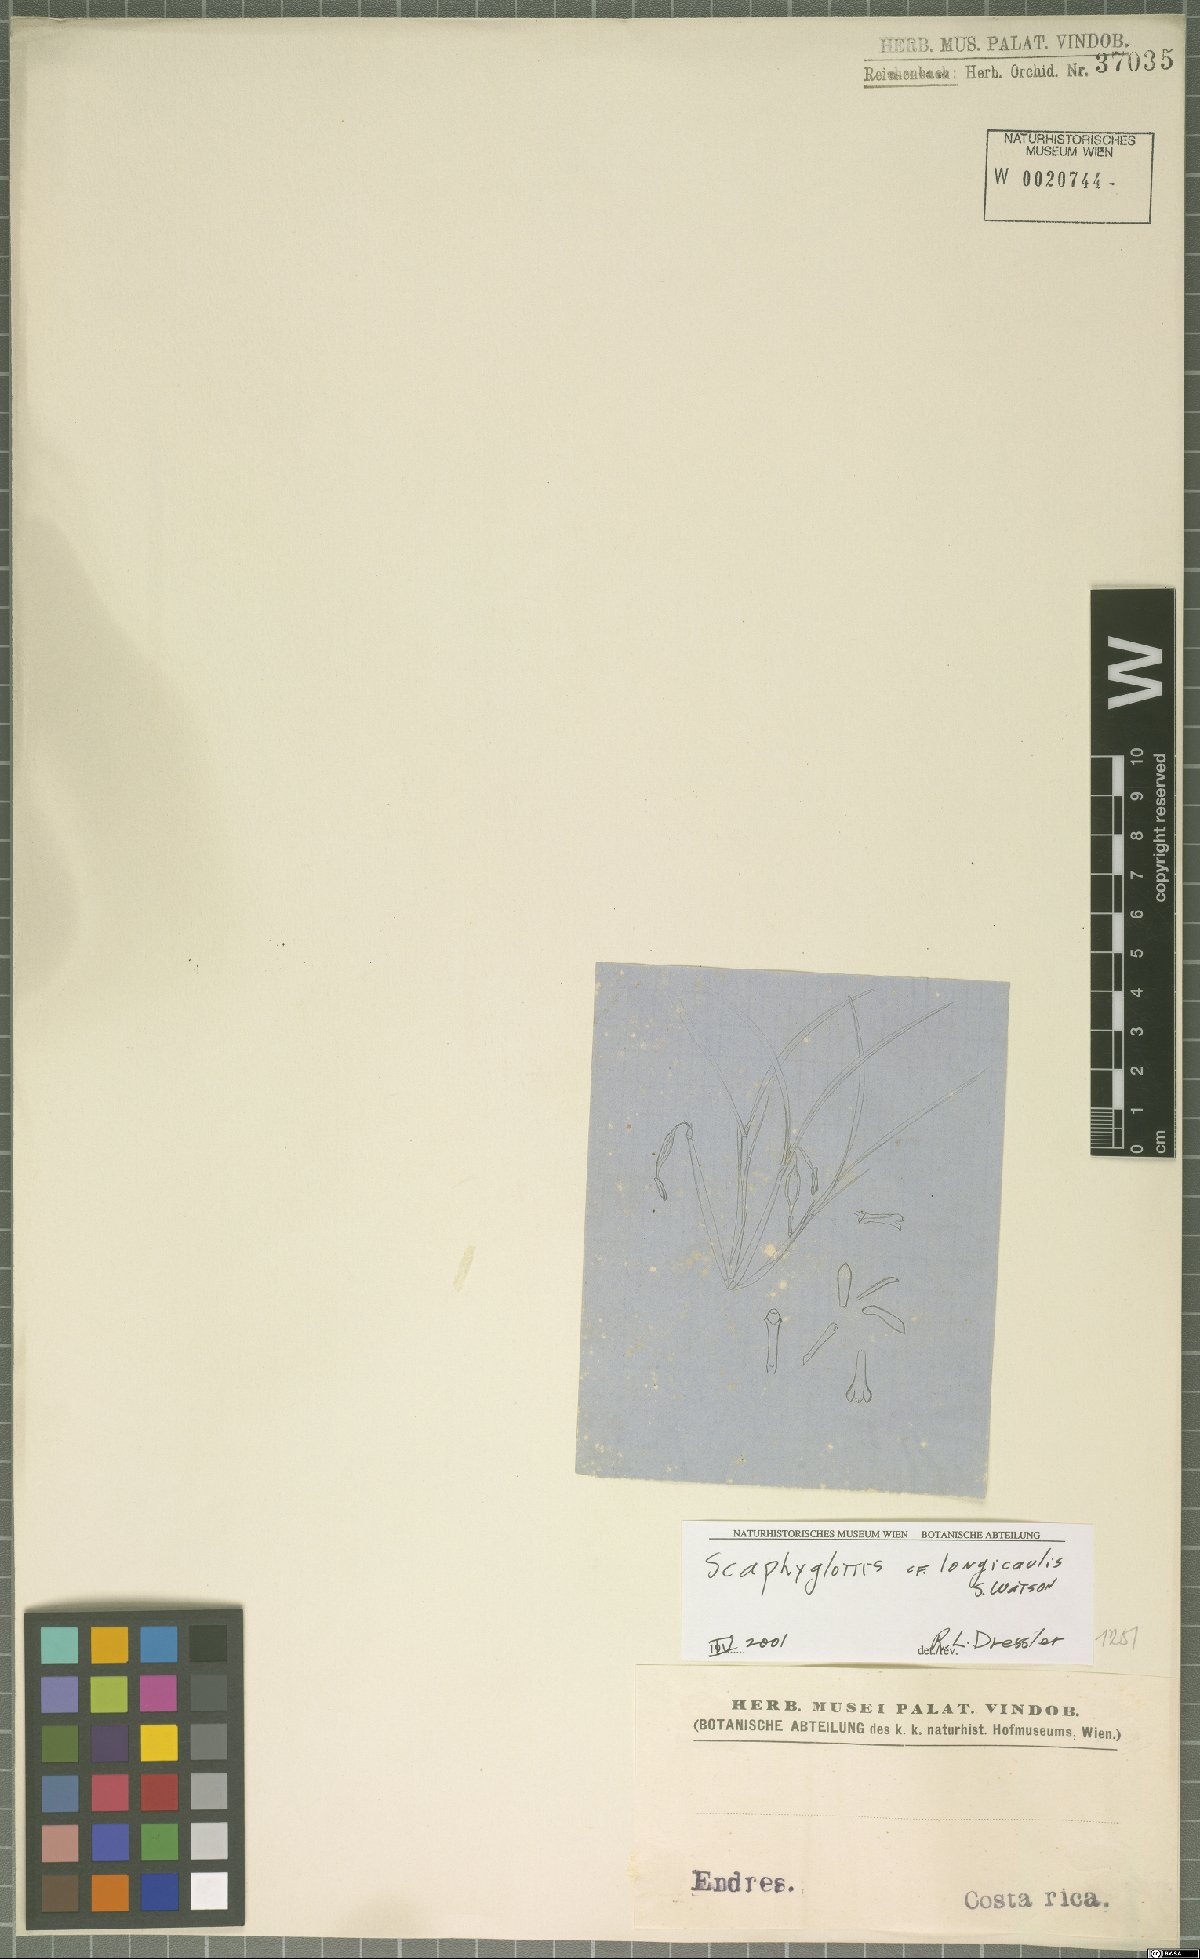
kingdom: Plantae
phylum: Tracheophyta
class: Liliopsida
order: Asparagales
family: Orchidaceae
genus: Scaphyglottis
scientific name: Scaphyglottis longicaulis
